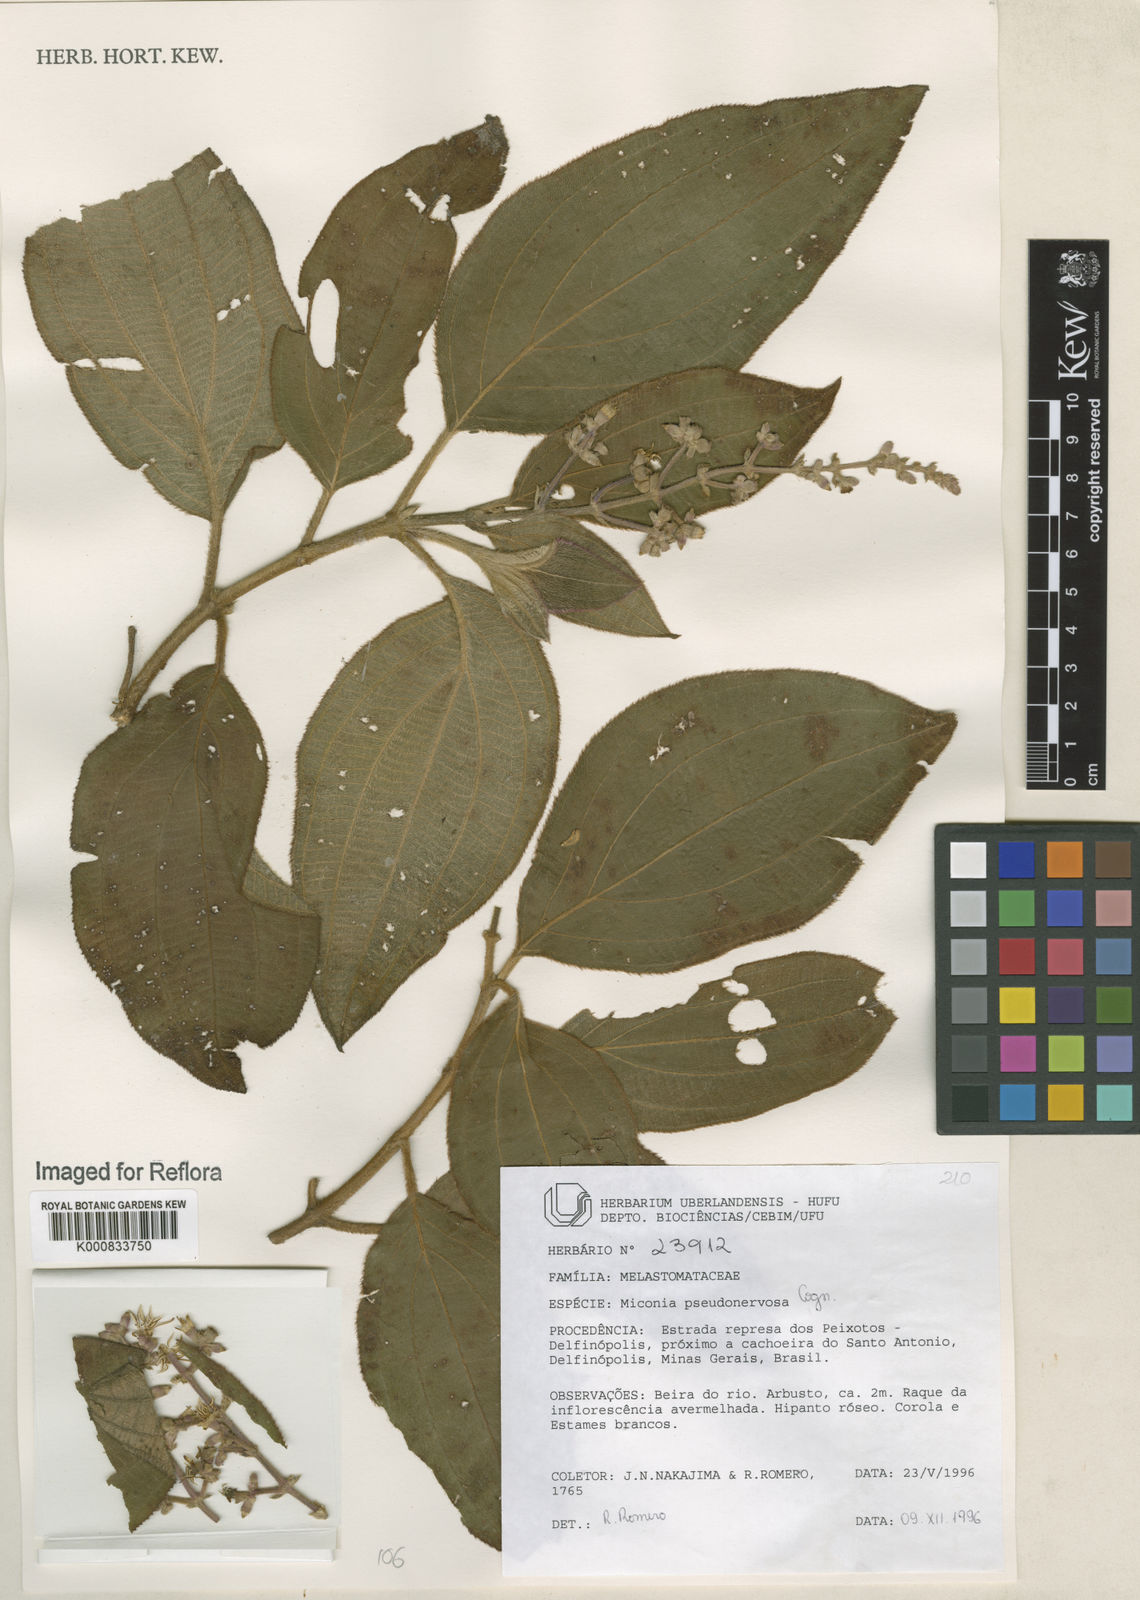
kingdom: Plantae
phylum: Tracheophyta
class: Magnoliopsida
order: Myrtales
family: Melastomataceae
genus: Miconia
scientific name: Miconia pseudonervosa
